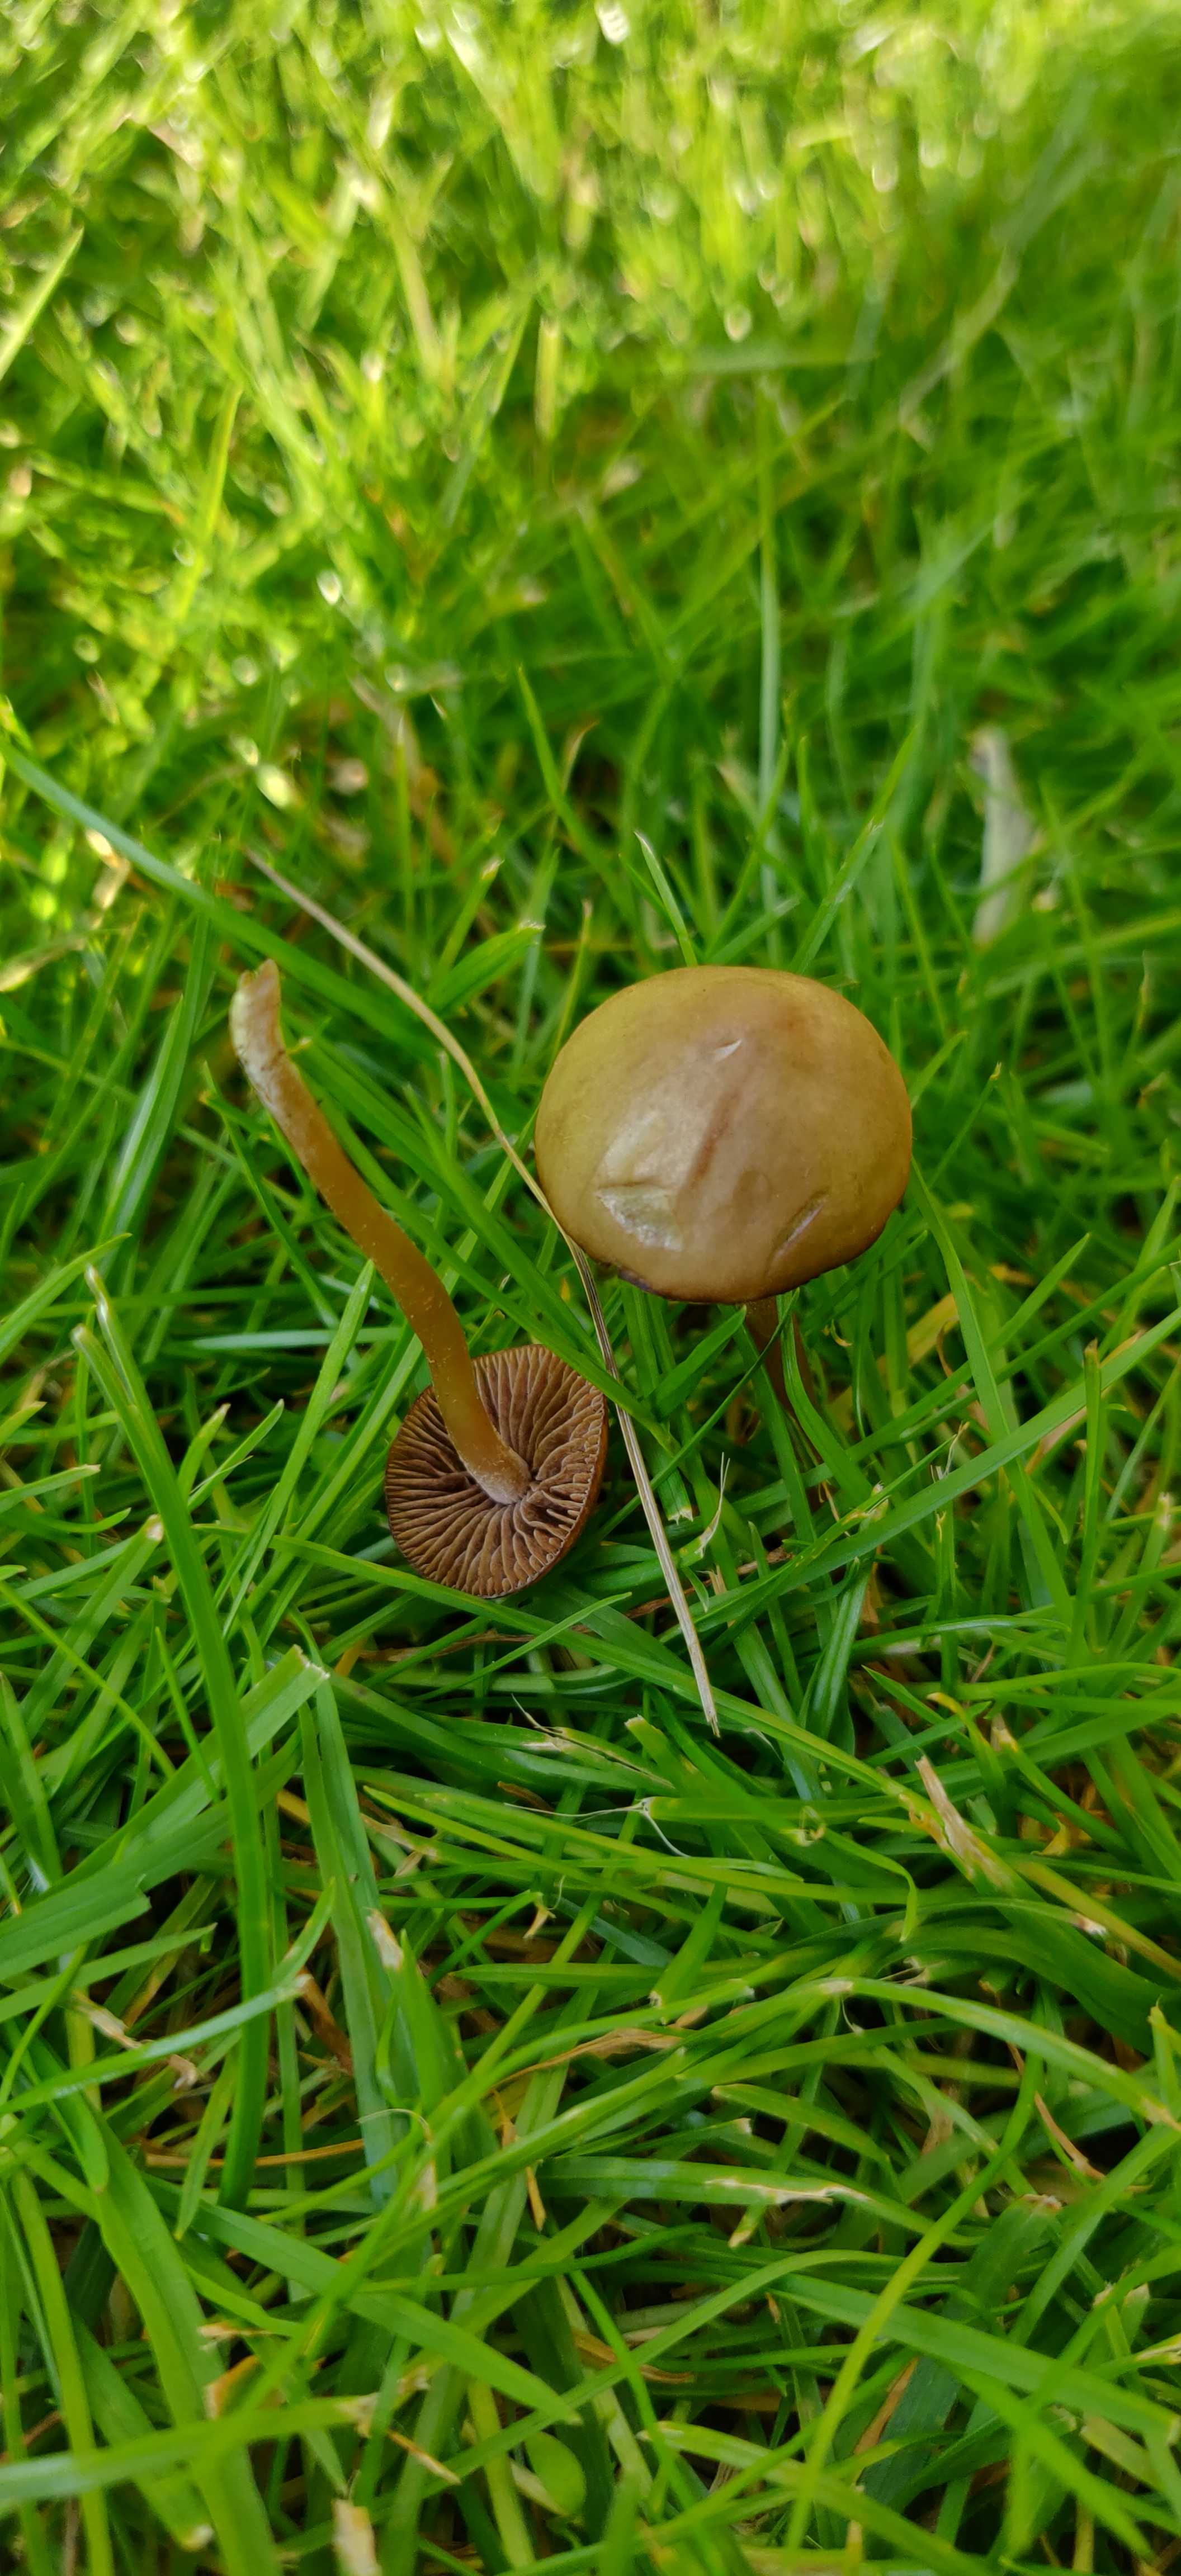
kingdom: Fungi
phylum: Basidiomycota
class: Agaricomycetes
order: Agaricales
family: Bolbitiaceae
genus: Panaeolina
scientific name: Panaeolina foenisecii
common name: høslætsvamp
